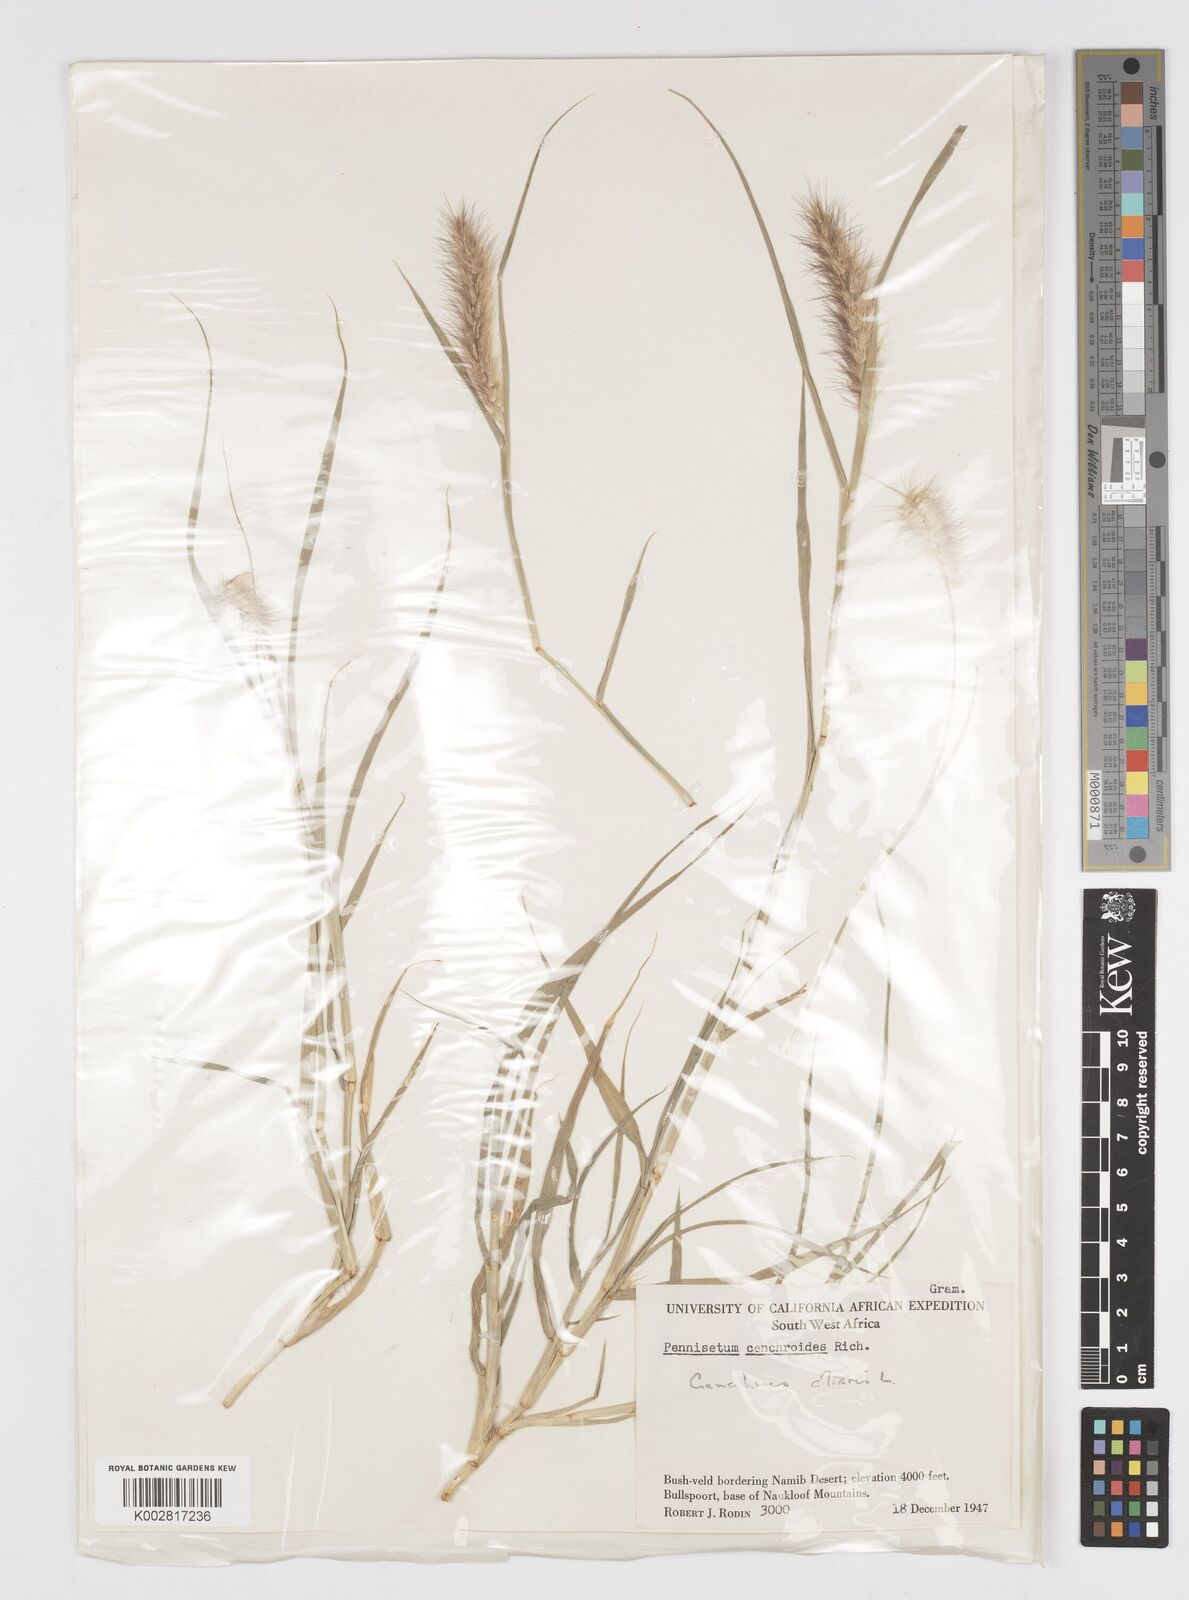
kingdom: Plantae
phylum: Tracheophyta
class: Liliopsida
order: Poales
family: Poaceae
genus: Cenchrus
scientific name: Cenchrus ciliaris
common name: Buffelgrass
